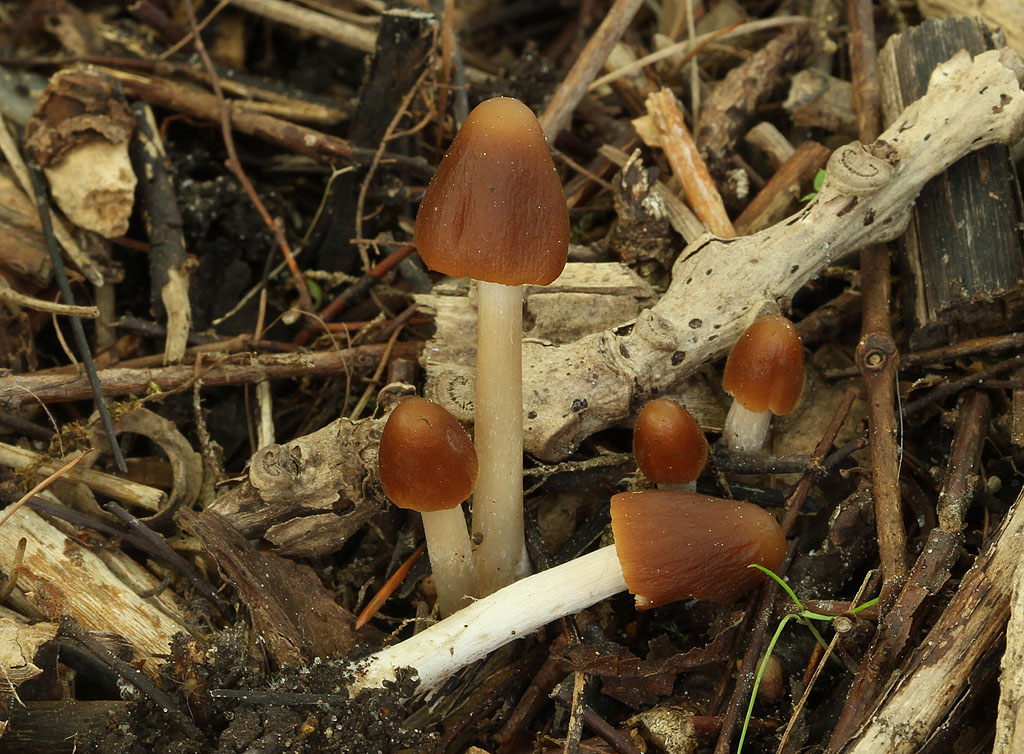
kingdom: Fungi
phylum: Basidiomycota
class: Agaricomycetes
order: Agaricales
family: Psathyrellaceae
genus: Parasola
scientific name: Parasola conopilea
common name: kegle-hjulhat
